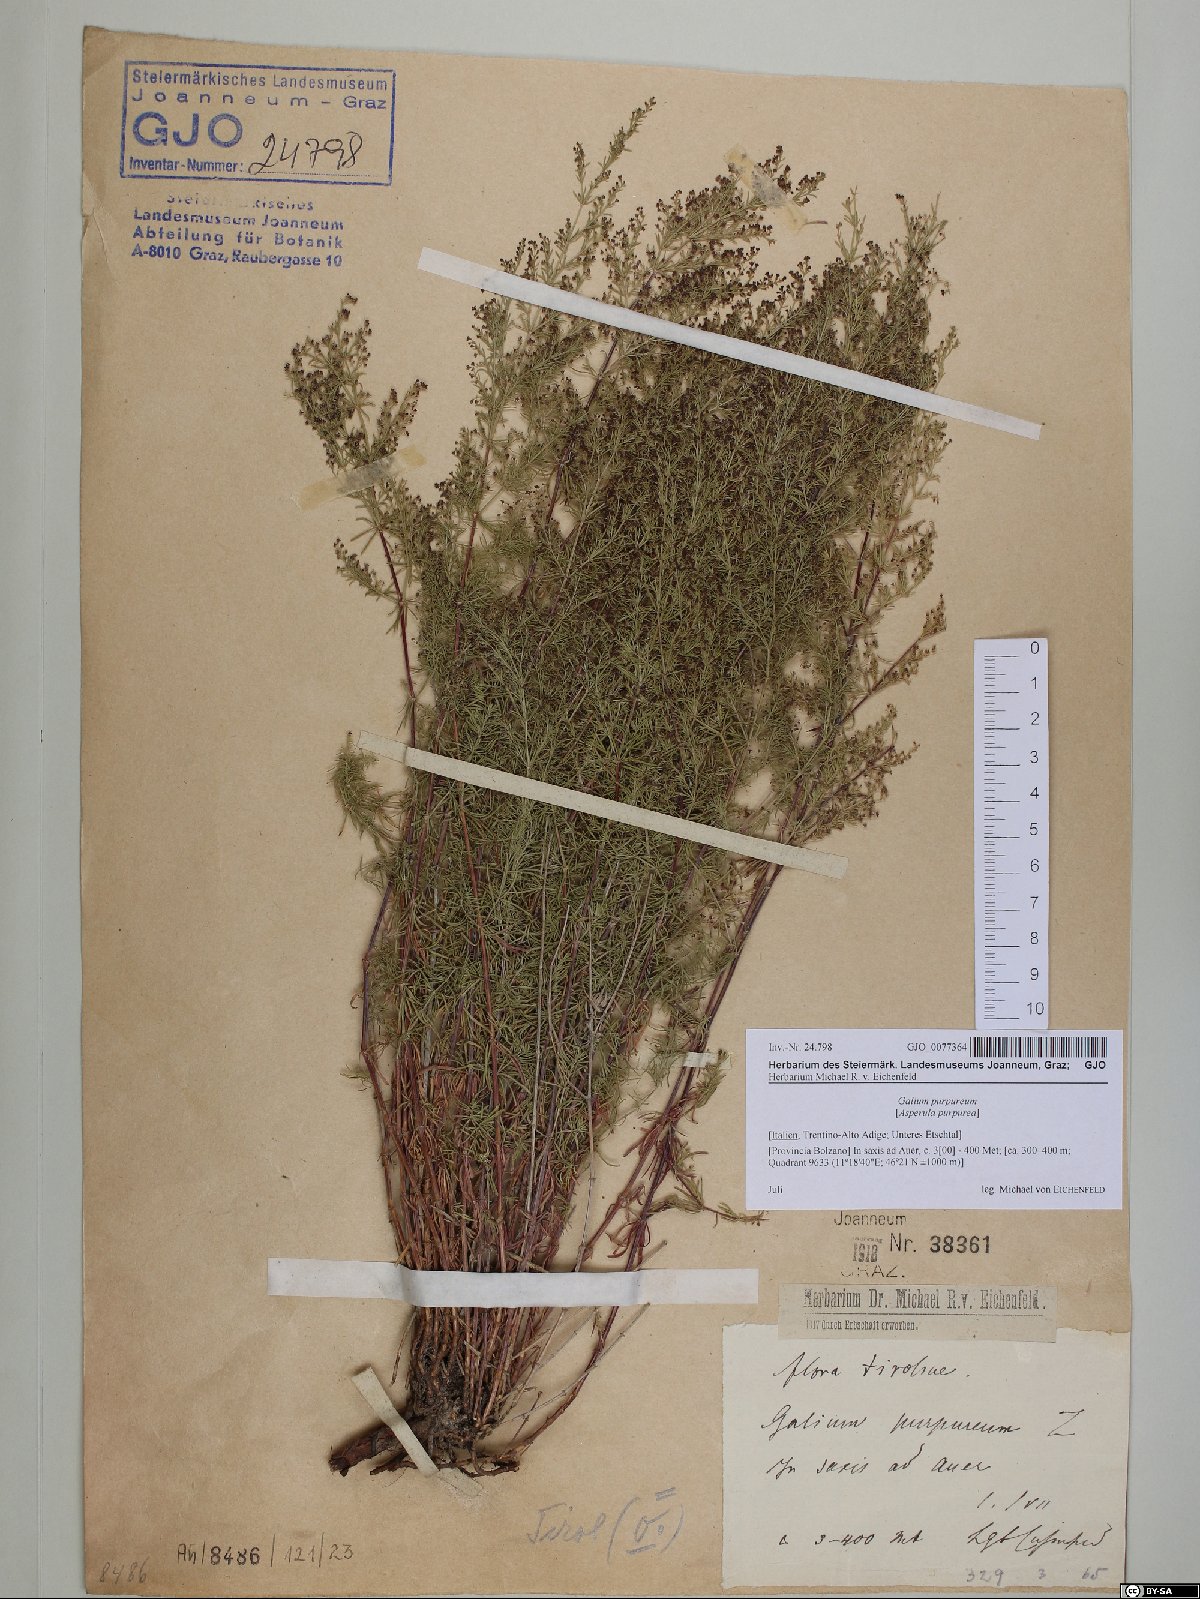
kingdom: Plantae
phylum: Tracheophyta
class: Magnoliopsida
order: Gentianales
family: Rubiaceae
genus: Thliphthisa
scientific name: Thliphthisa purpurea
